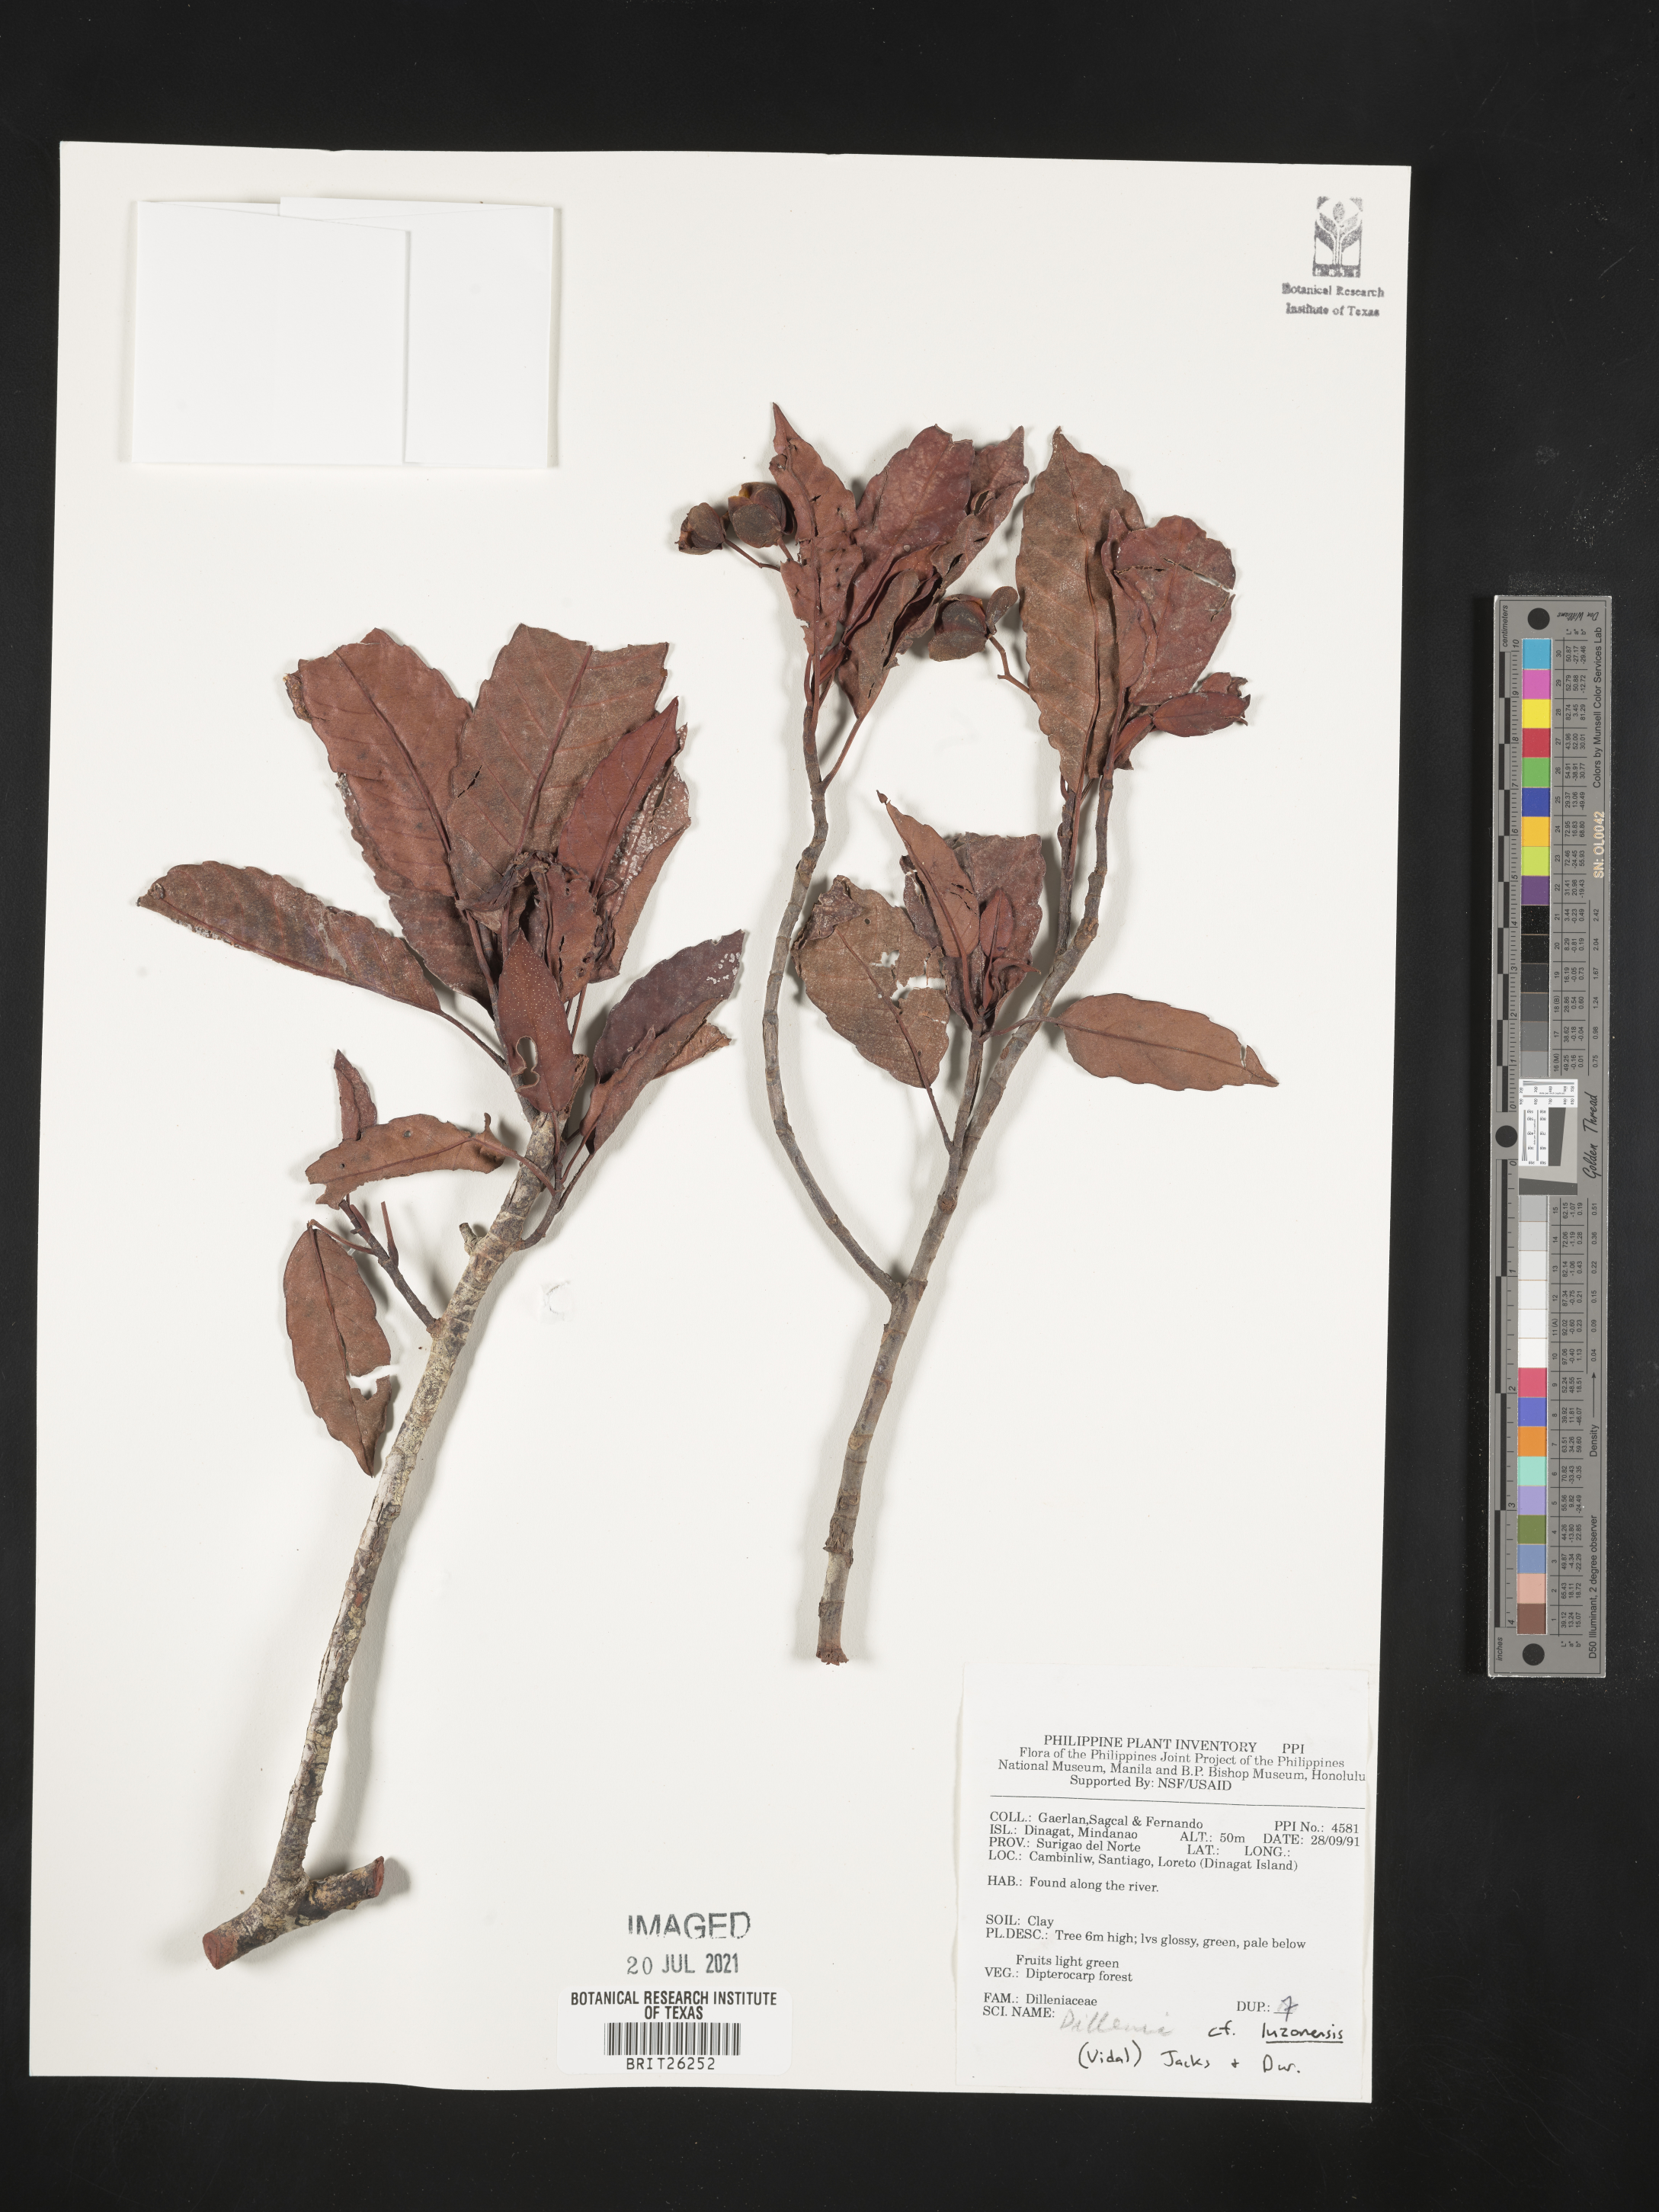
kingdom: Plantae
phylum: Tracheophyta
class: Magnoliopsida
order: Dilleniales
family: Dilleniaceae
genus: Dillenia
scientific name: Dillenia
